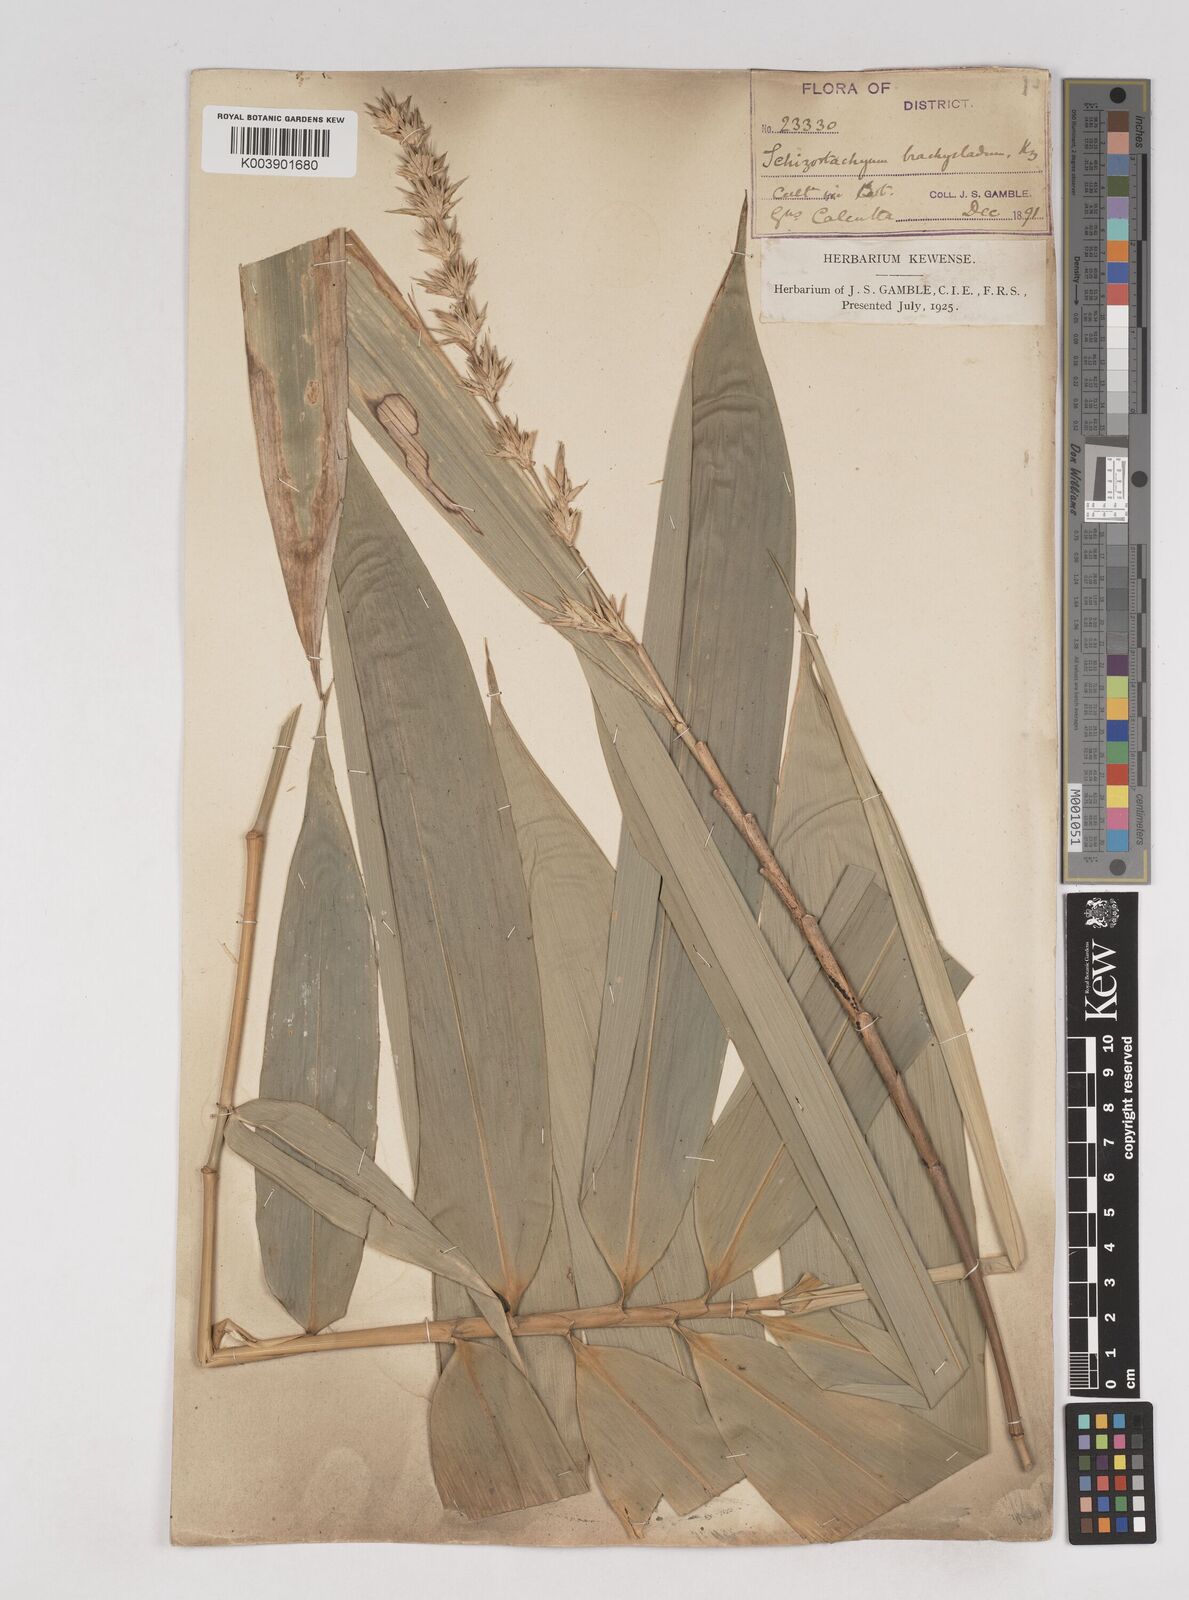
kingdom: Plantae
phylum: Tracheophyta
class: Liliopsida
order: Poales
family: Poaceae
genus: Schizostachyum
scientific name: Schizostachyum brachycladum
